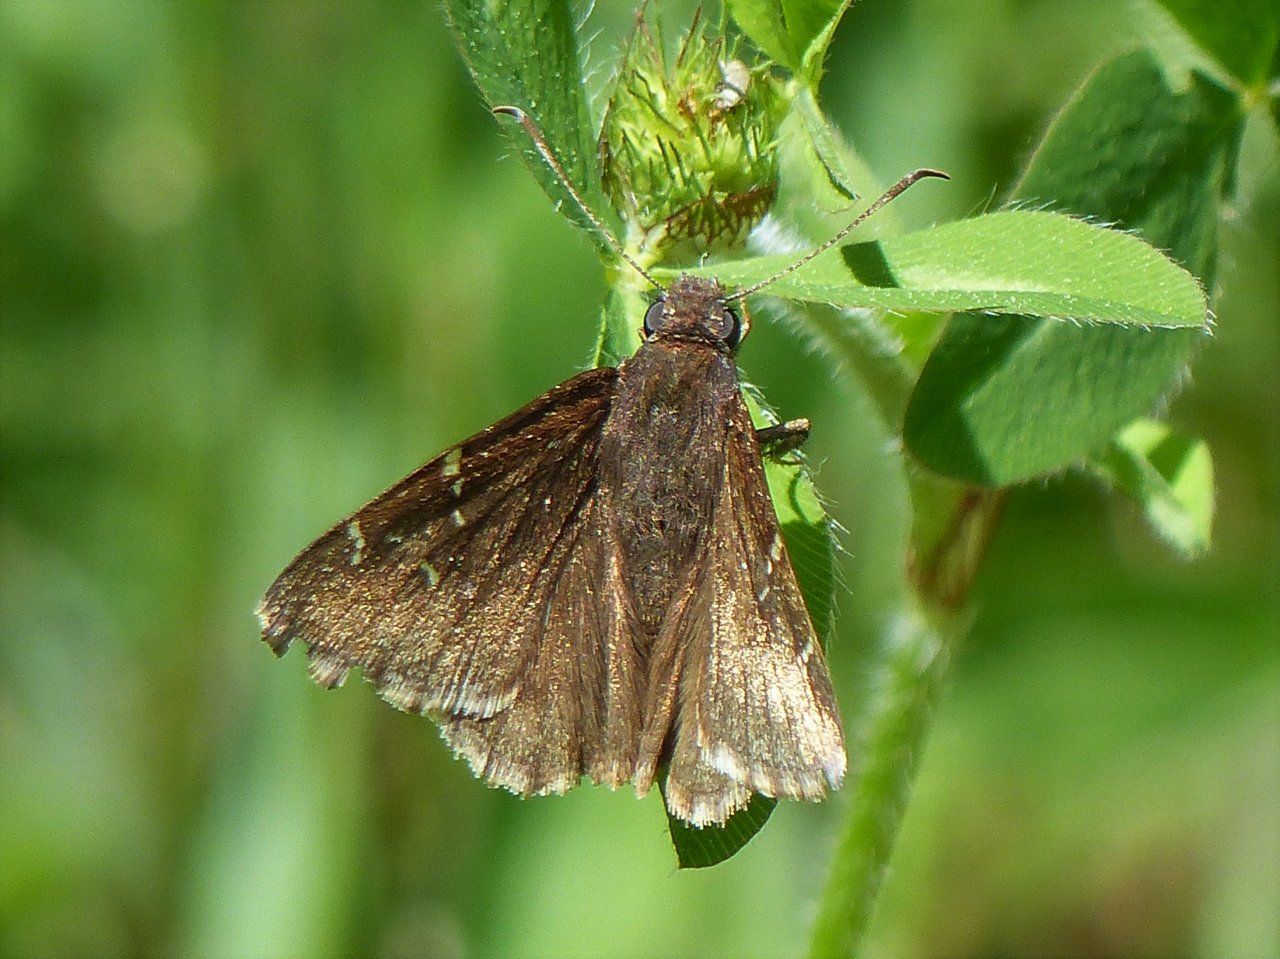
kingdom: Animalia
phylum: Arthropoda
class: Insecta
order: Lepidoptera
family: Hesperiidae
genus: Autochton
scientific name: Autochton
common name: Northern Cloudywing
